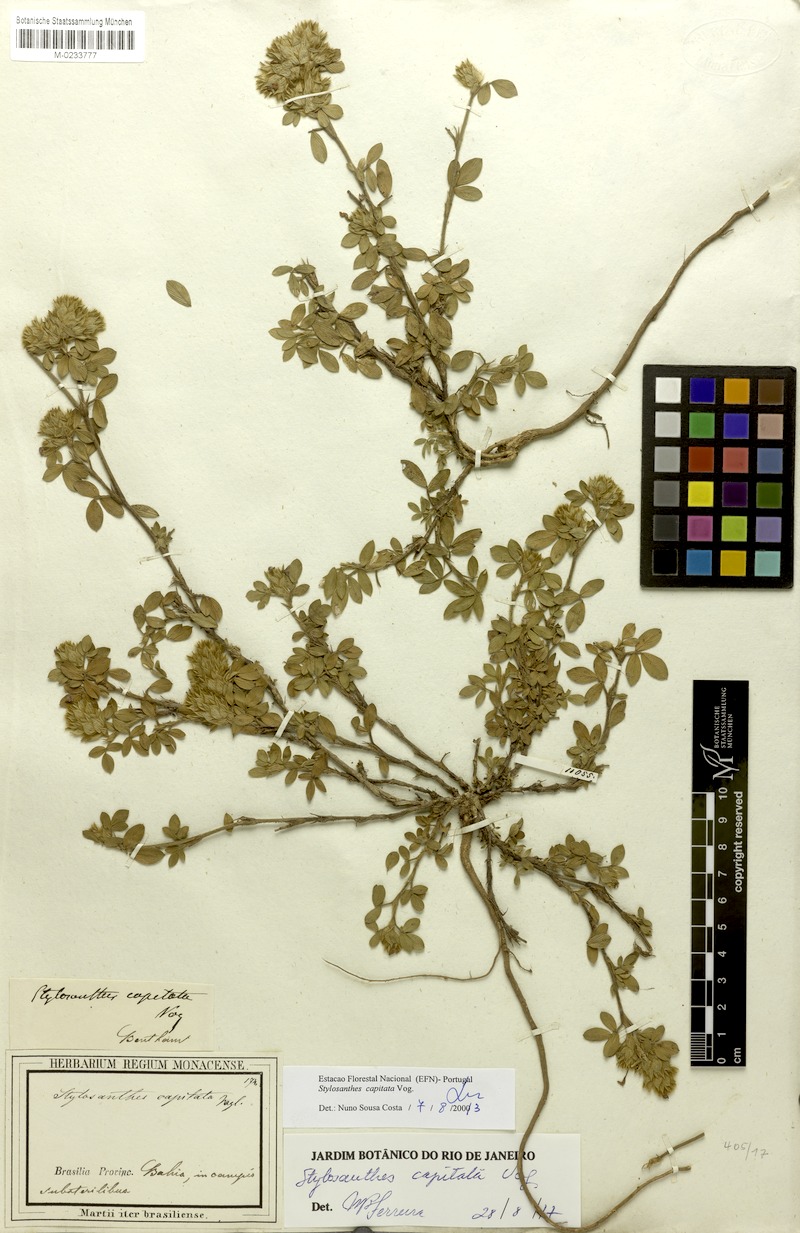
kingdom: Plantae
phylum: Tracheophyta
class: Magnoliopsida
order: Fabales
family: Fabaceae
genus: Stylosanthes
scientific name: Stylosanthes capitata
